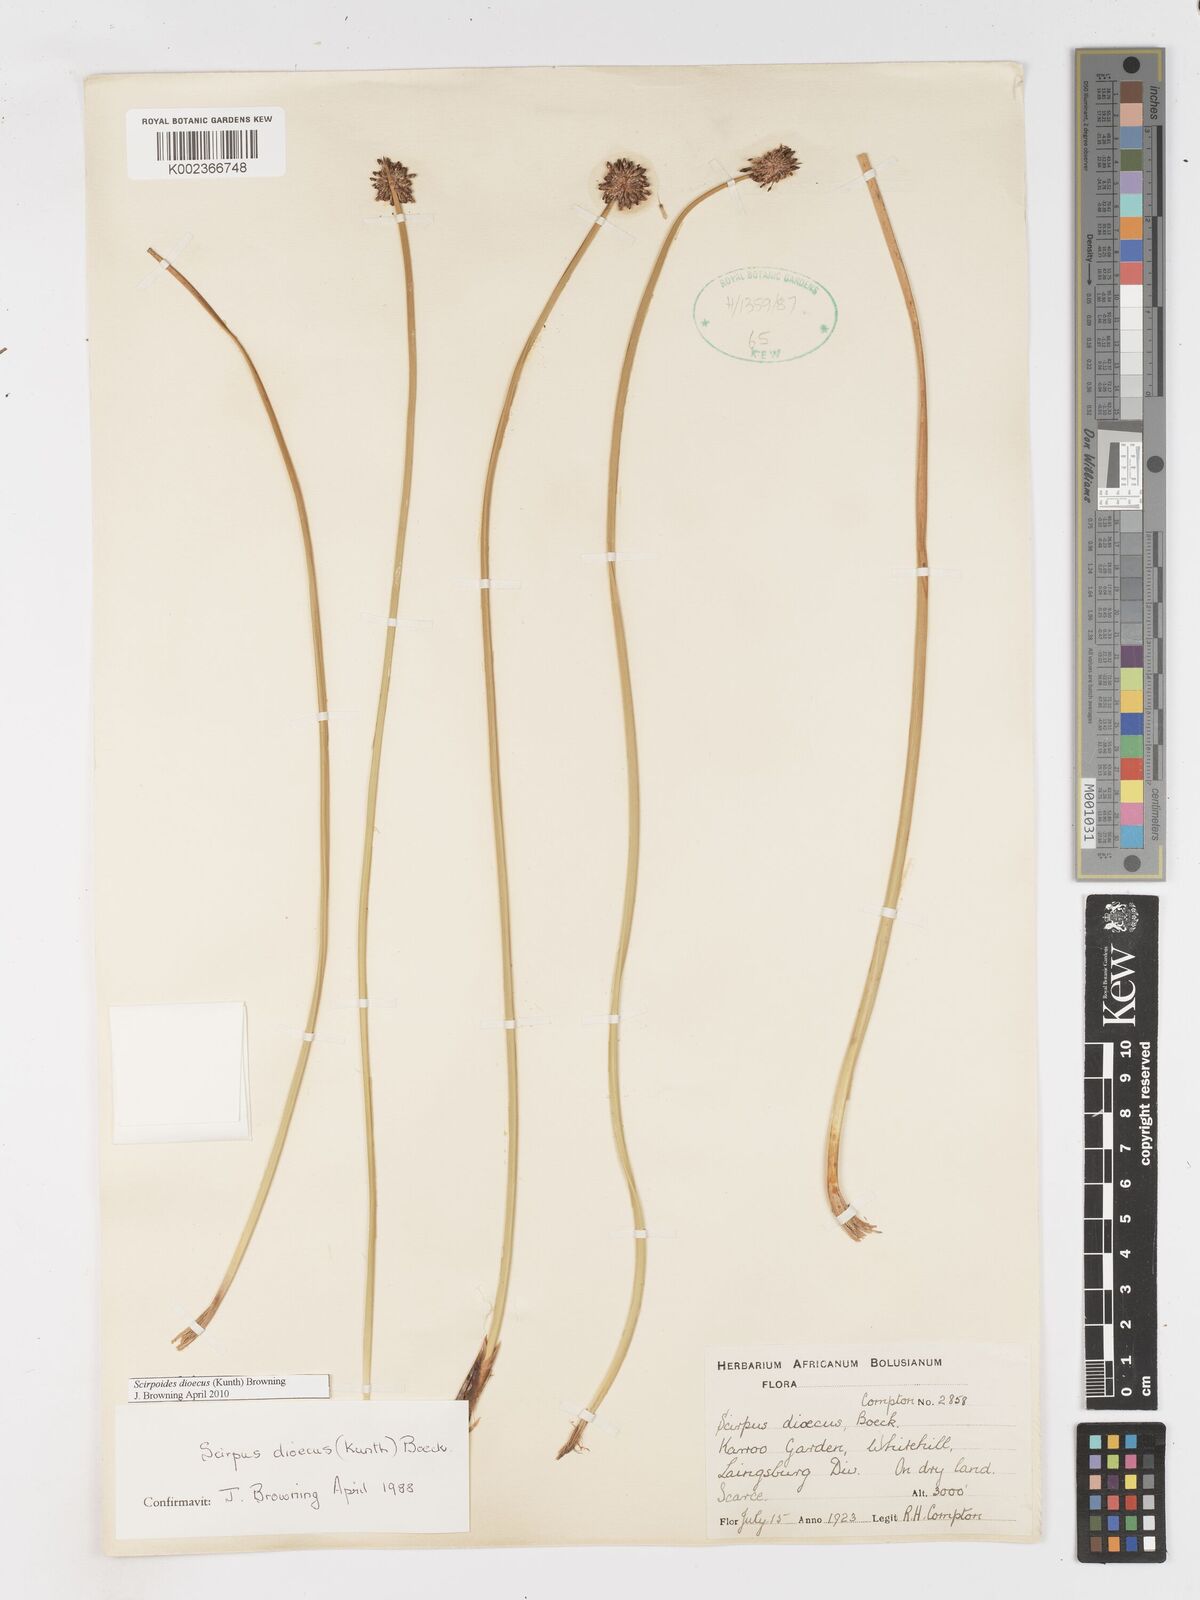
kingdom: Plantae
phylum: Tracheophyta
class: Liliopsida
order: Poales
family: Cyperaceae
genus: Afroscirpoides
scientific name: Afroscirpoides dioeca
